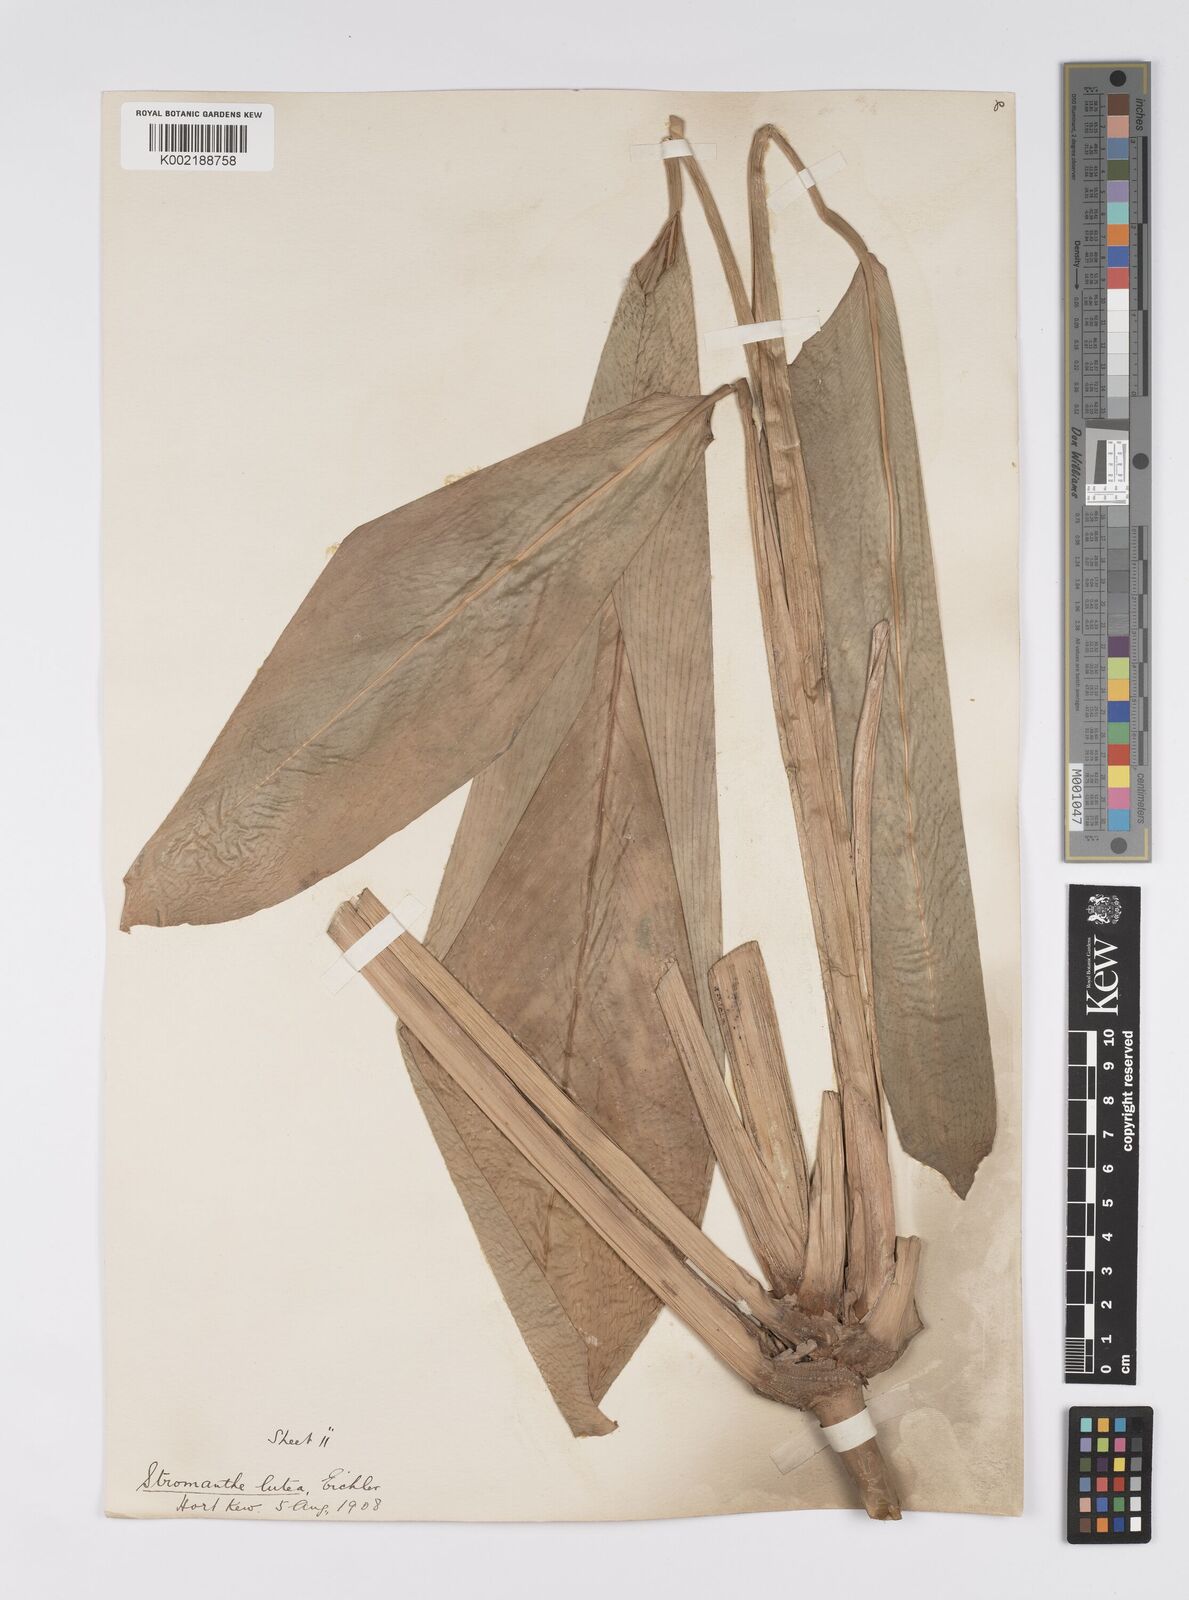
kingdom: Plantae
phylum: Tracheophyta
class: Liliopsida
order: Zingiberales
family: Marantaceae
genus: Stromanthe
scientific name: Stromanthe jacquinii
